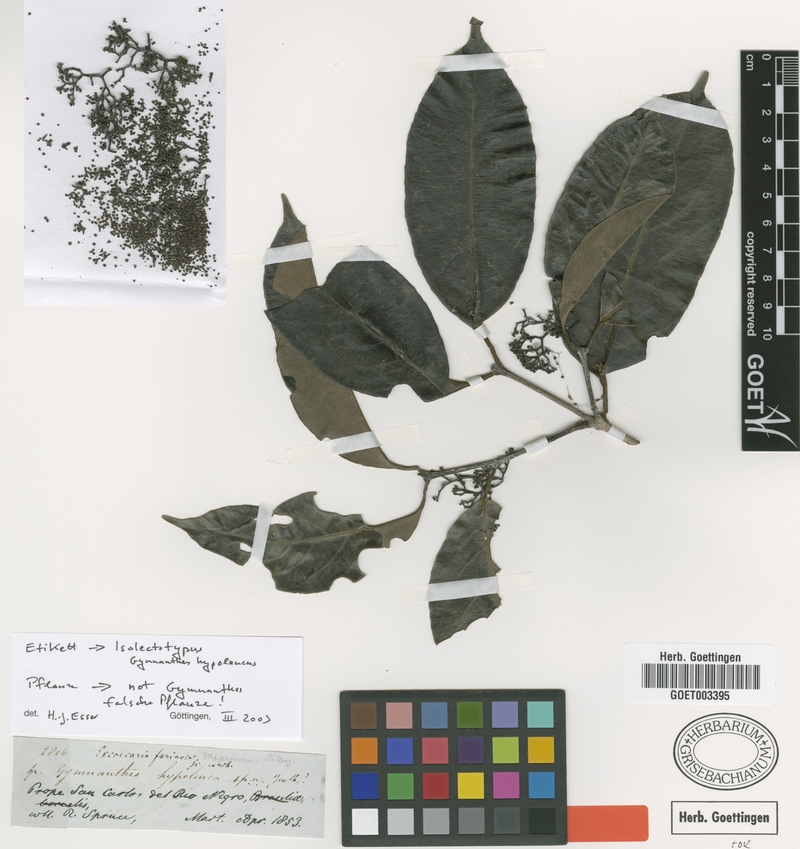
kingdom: Plantae
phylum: Tracheophyta
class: Magnoliopsida
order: Malpighiales
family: Euphorbiaceae
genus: Gymnanthes
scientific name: Gymnanthes hypoleuca
